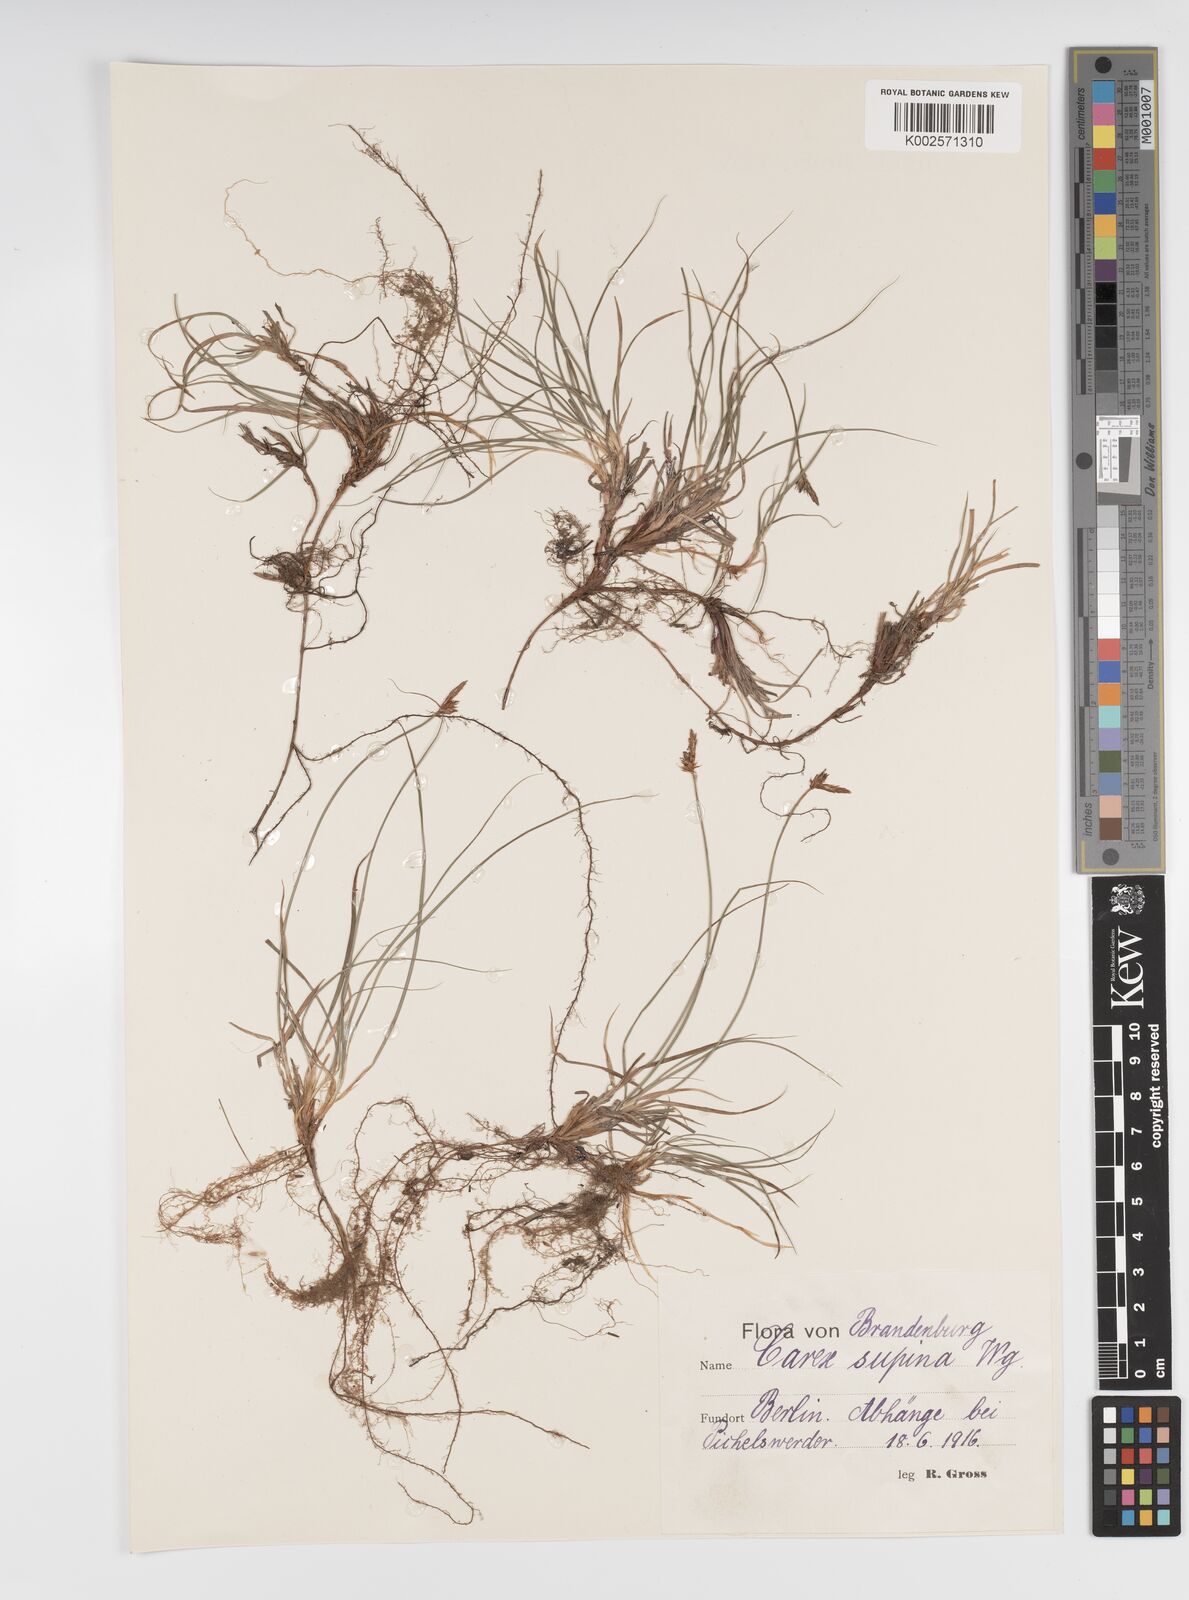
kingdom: Plantae
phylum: Tracheophyta
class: Liliopsida
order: Poales
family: Cyperaceae
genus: Carex
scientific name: Carex supina
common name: Lying-back sedge
